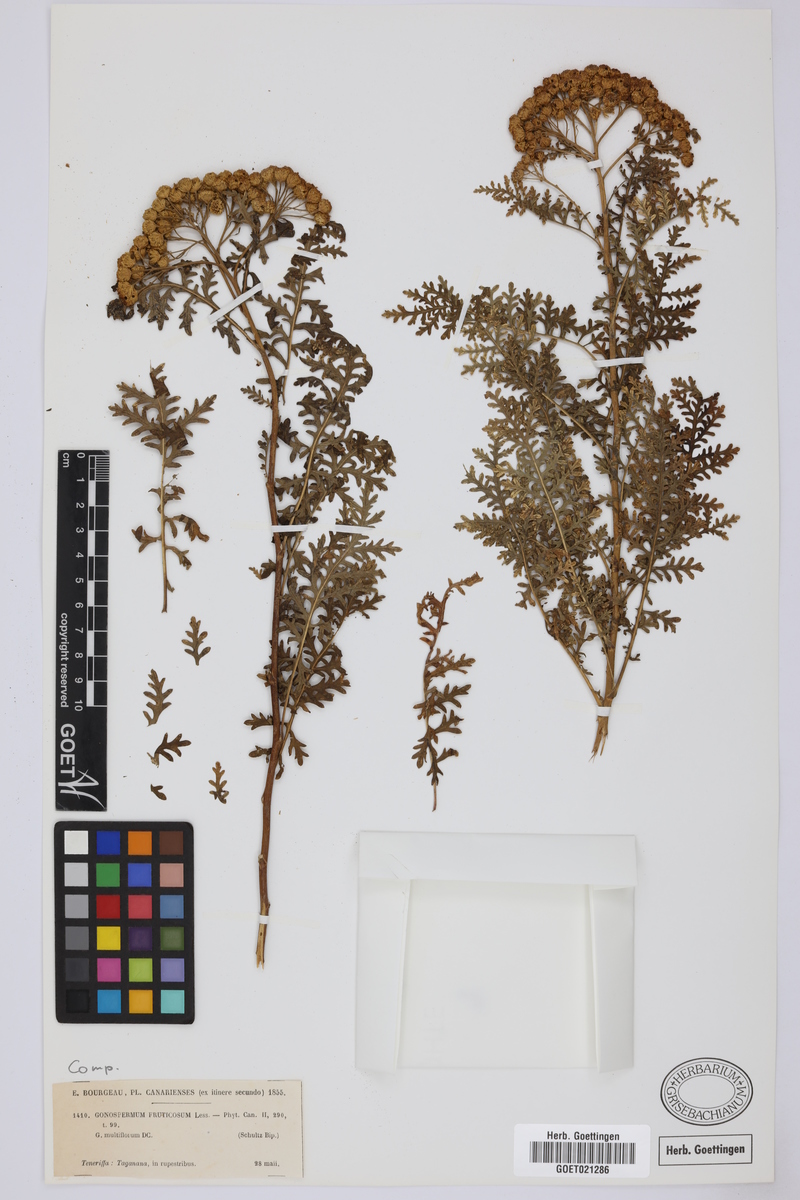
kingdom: Plantae
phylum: Tracheophyta
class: Magnoliopsida
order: Asterales
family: Asteraceae
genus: Gonospermum
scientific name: Gonospermum fruticosum
